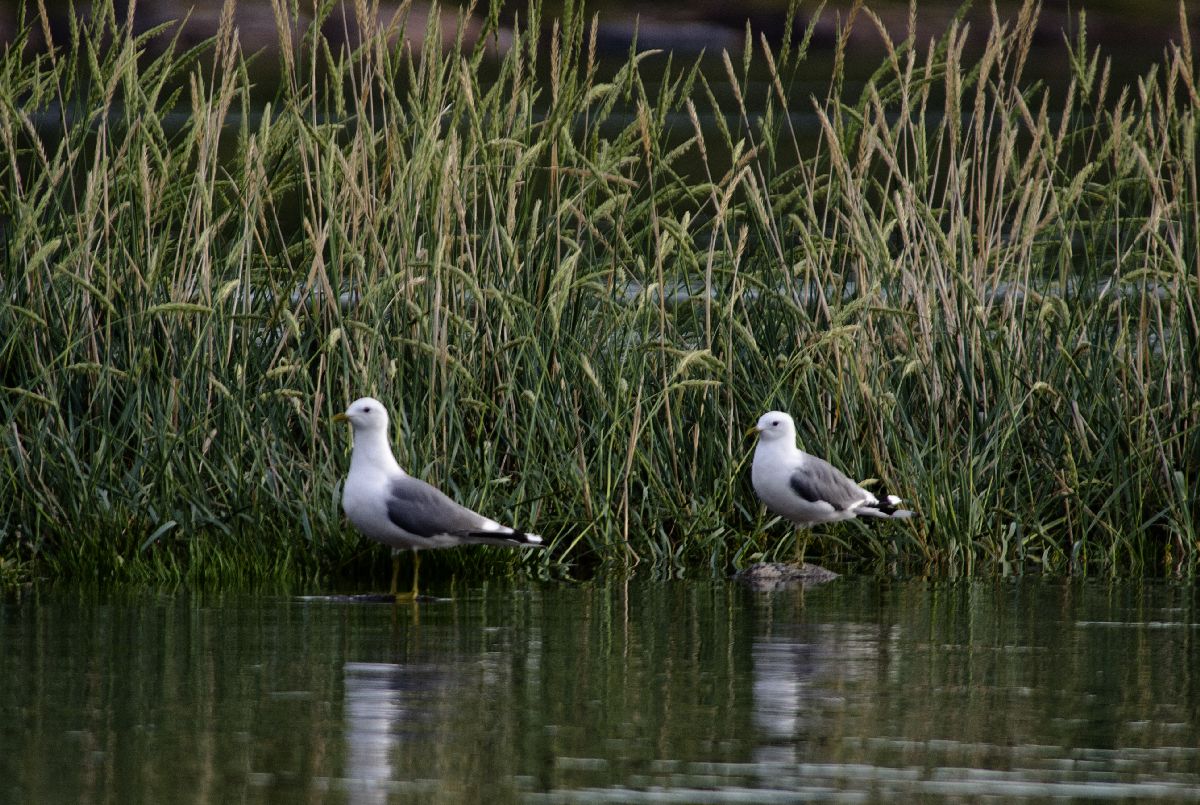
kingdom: Animalia
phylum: Chordata
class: Aves
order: Charadriiformes
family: Laridae
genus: Larus
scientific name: Larus canus
